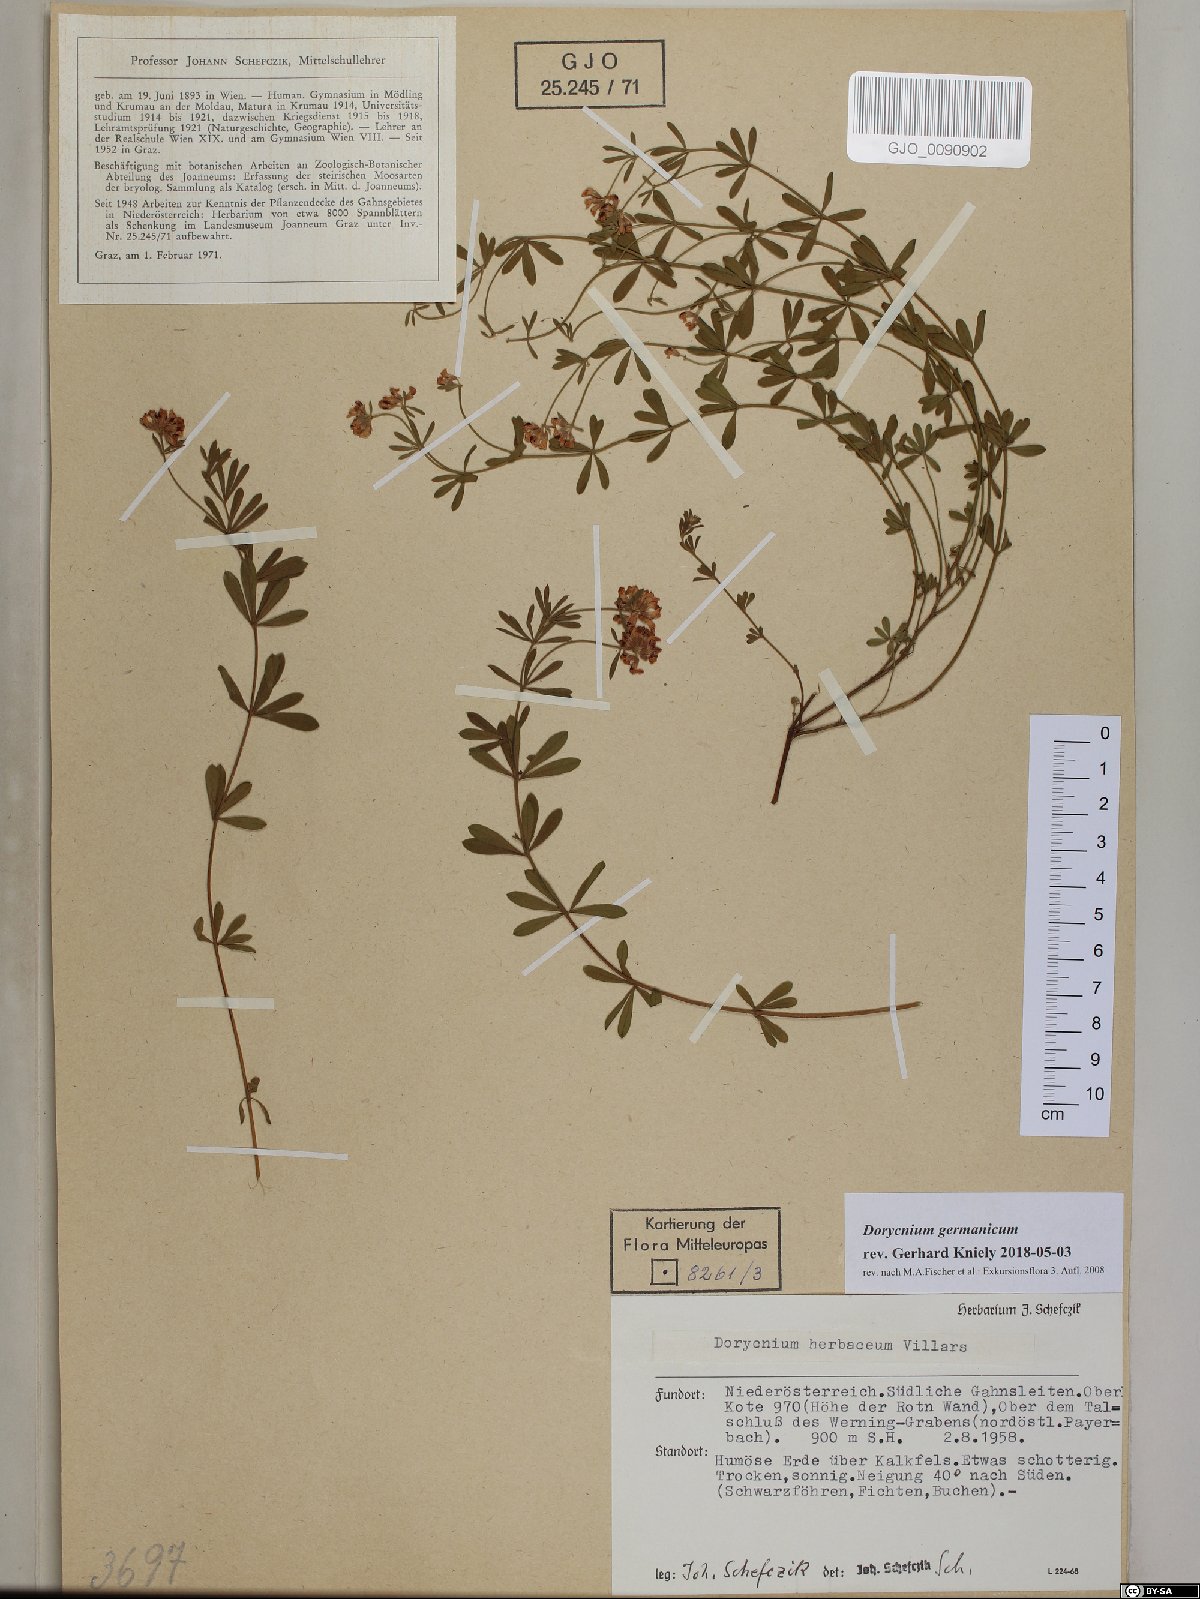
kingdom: Plantae
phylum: Tracheophyta
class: Magnoliopsida
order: Fabales
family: Fabaceae
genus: Lotus
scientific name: Lotus germanicus
